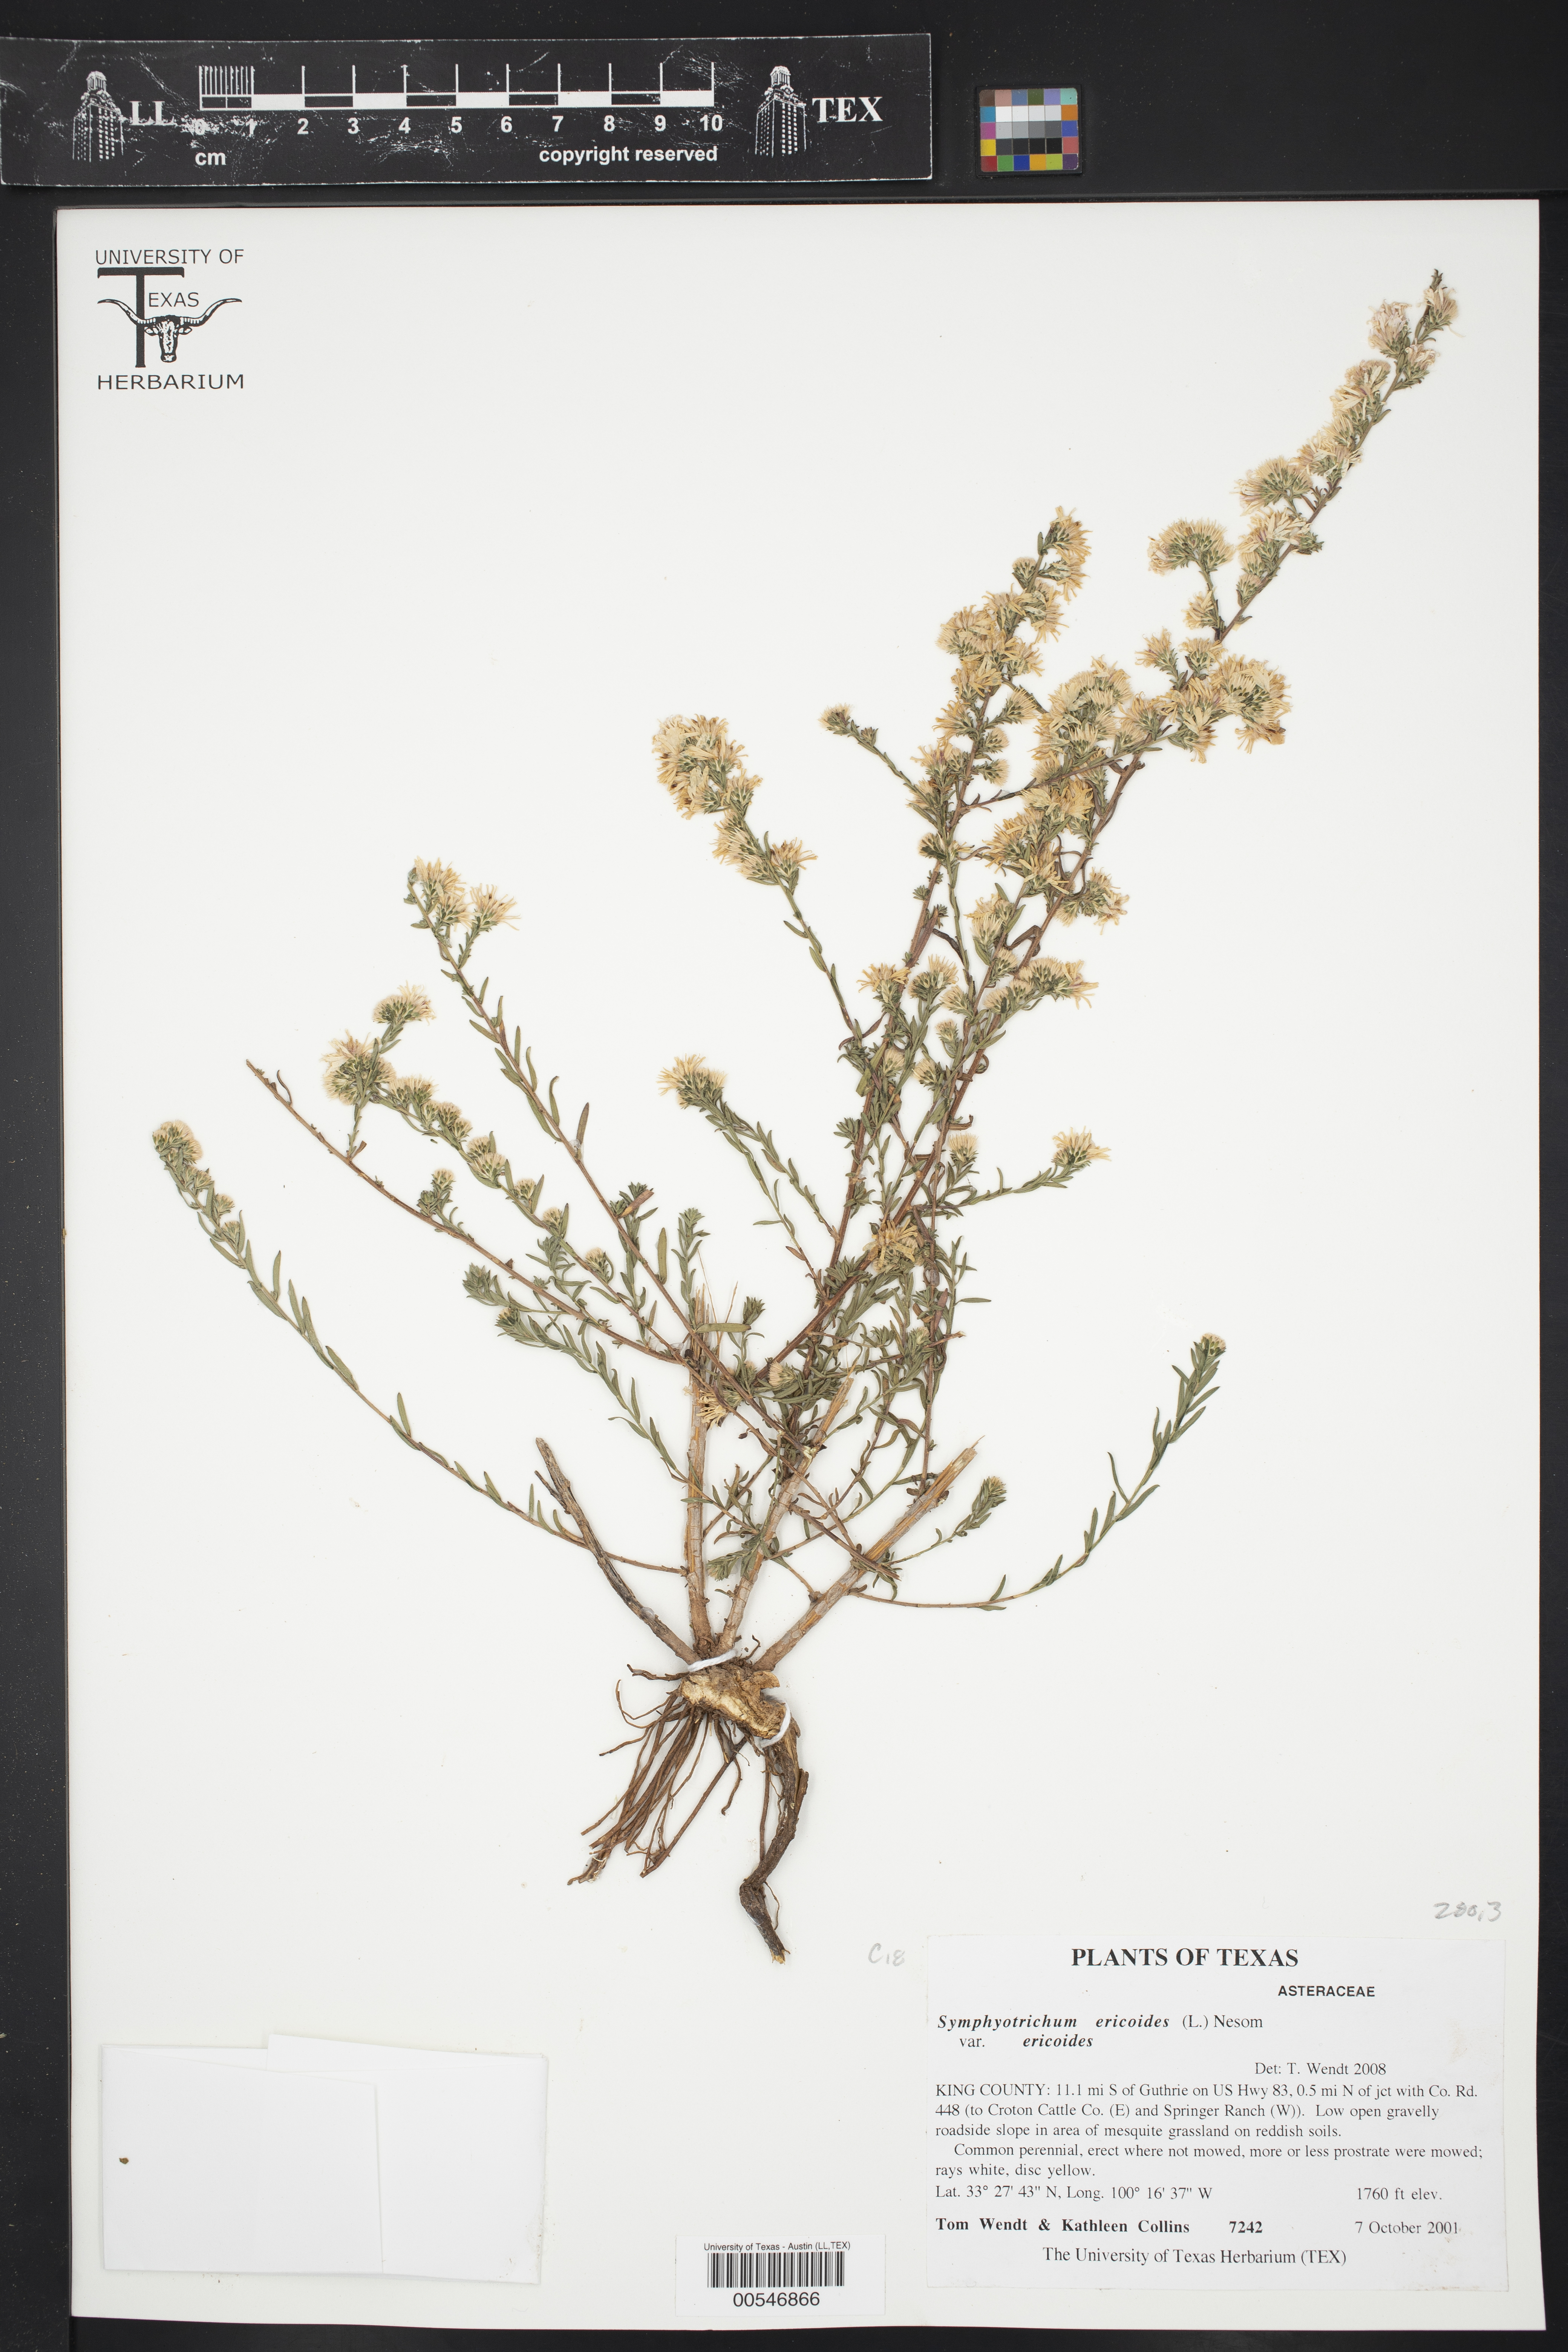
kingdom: Plantae
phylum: Tracheophyta
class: Magnoliopsida
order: Asterales
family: Asteraceae
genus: Symphyotrichum
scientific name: Symphyotrichum ericoides
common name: Heath aster
